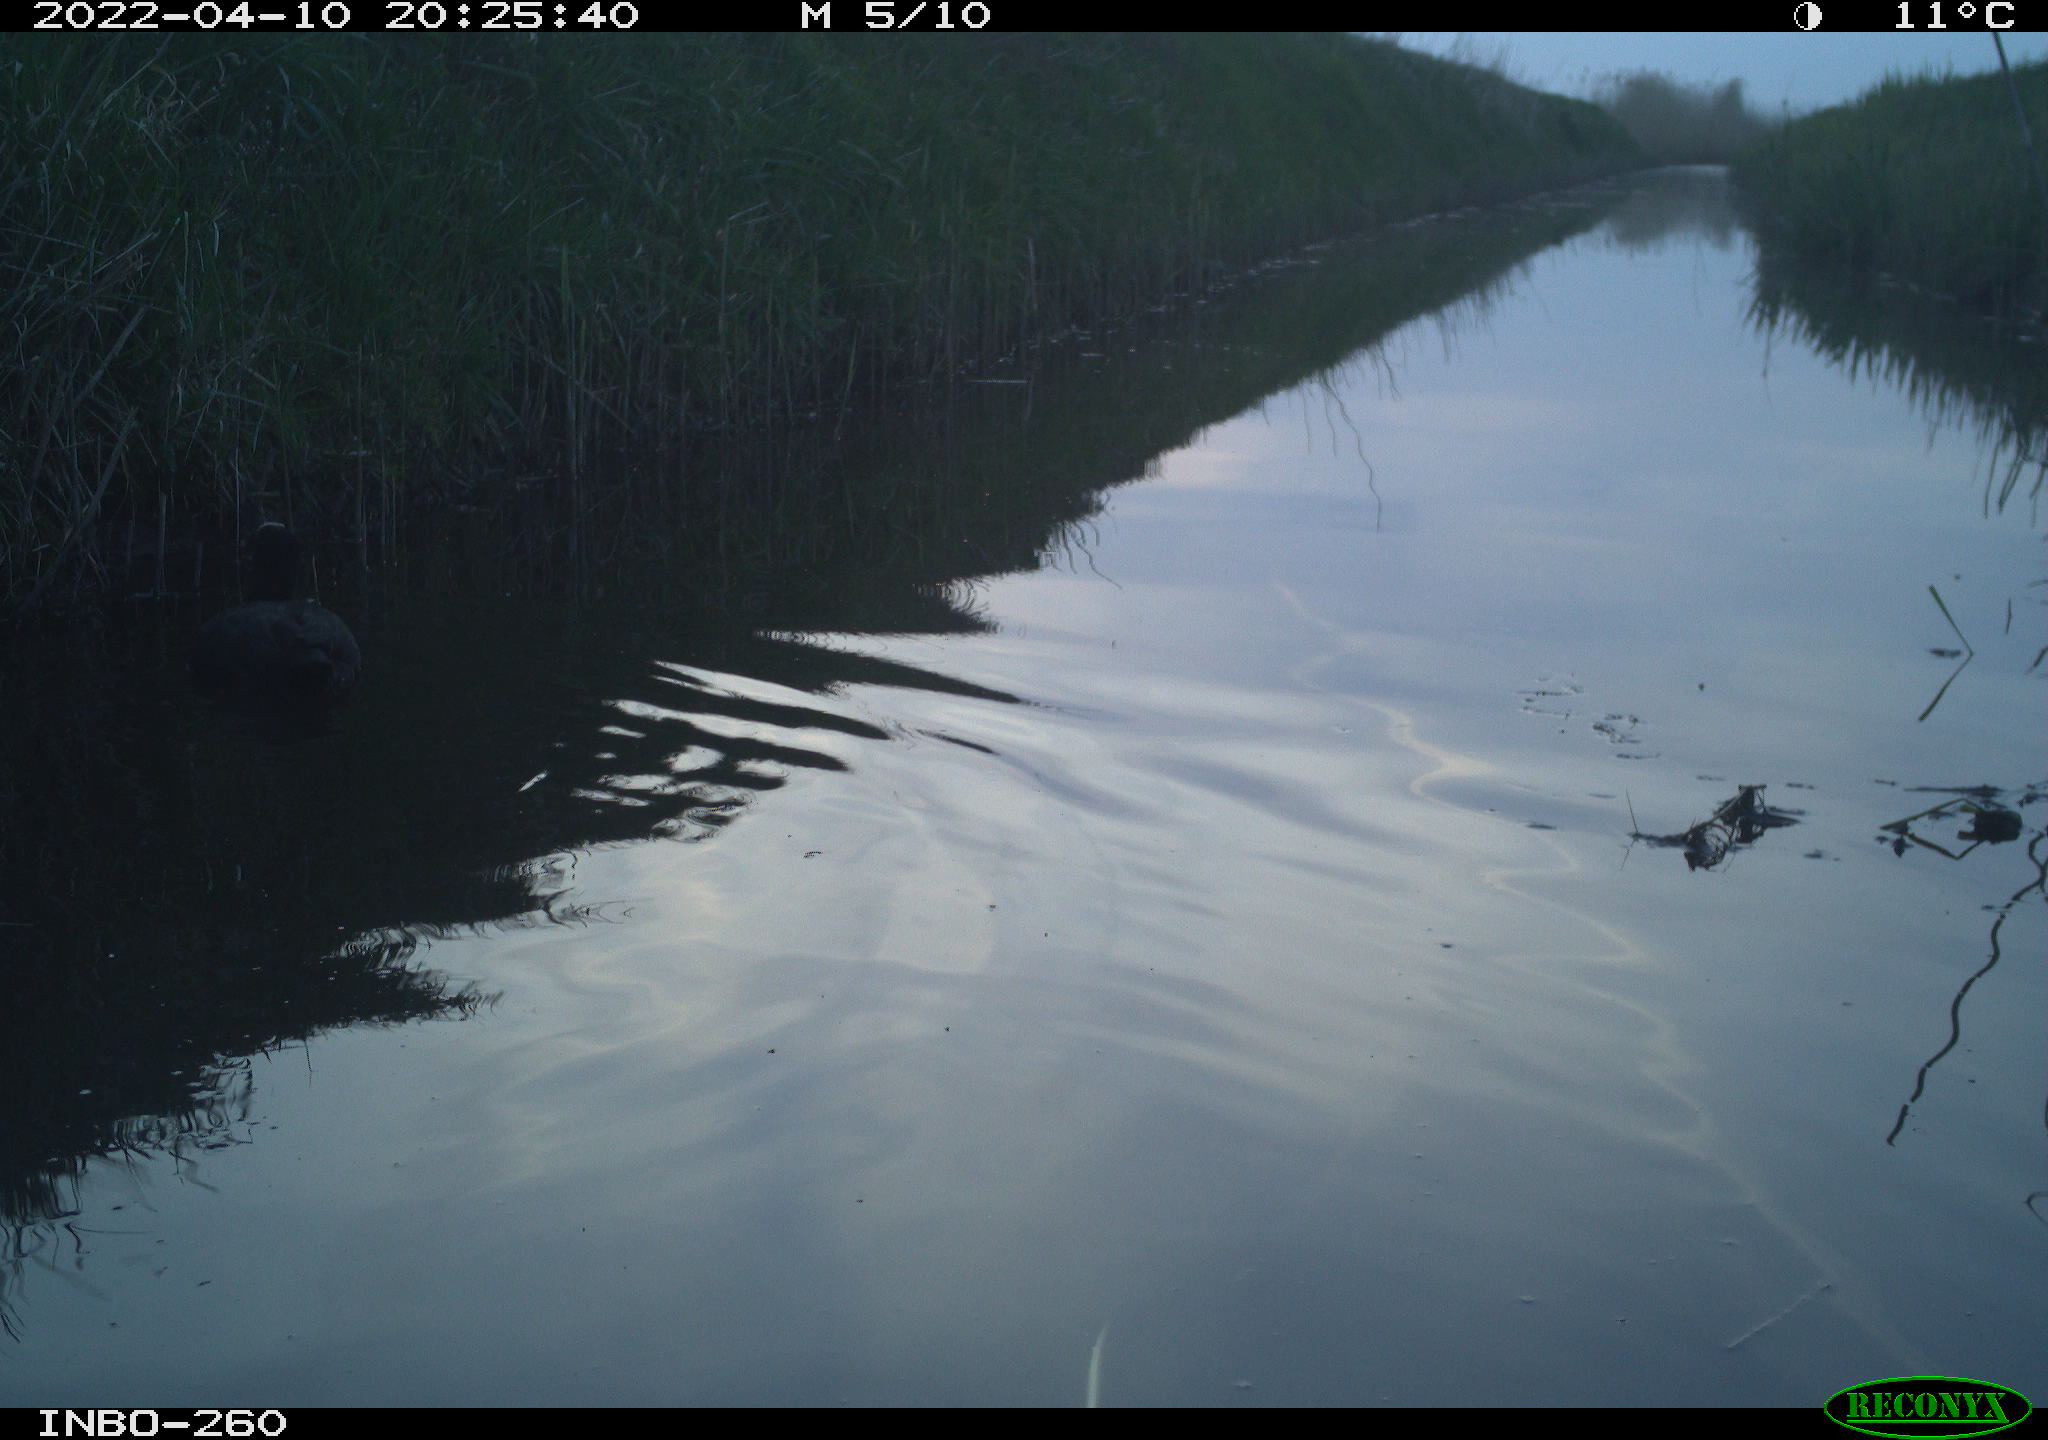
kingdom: Animalia
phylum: Chordata
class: Aves
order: Gruiformes
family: Rallidae
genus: Fulica
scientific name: Fulica atra
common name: Eurasian coot
